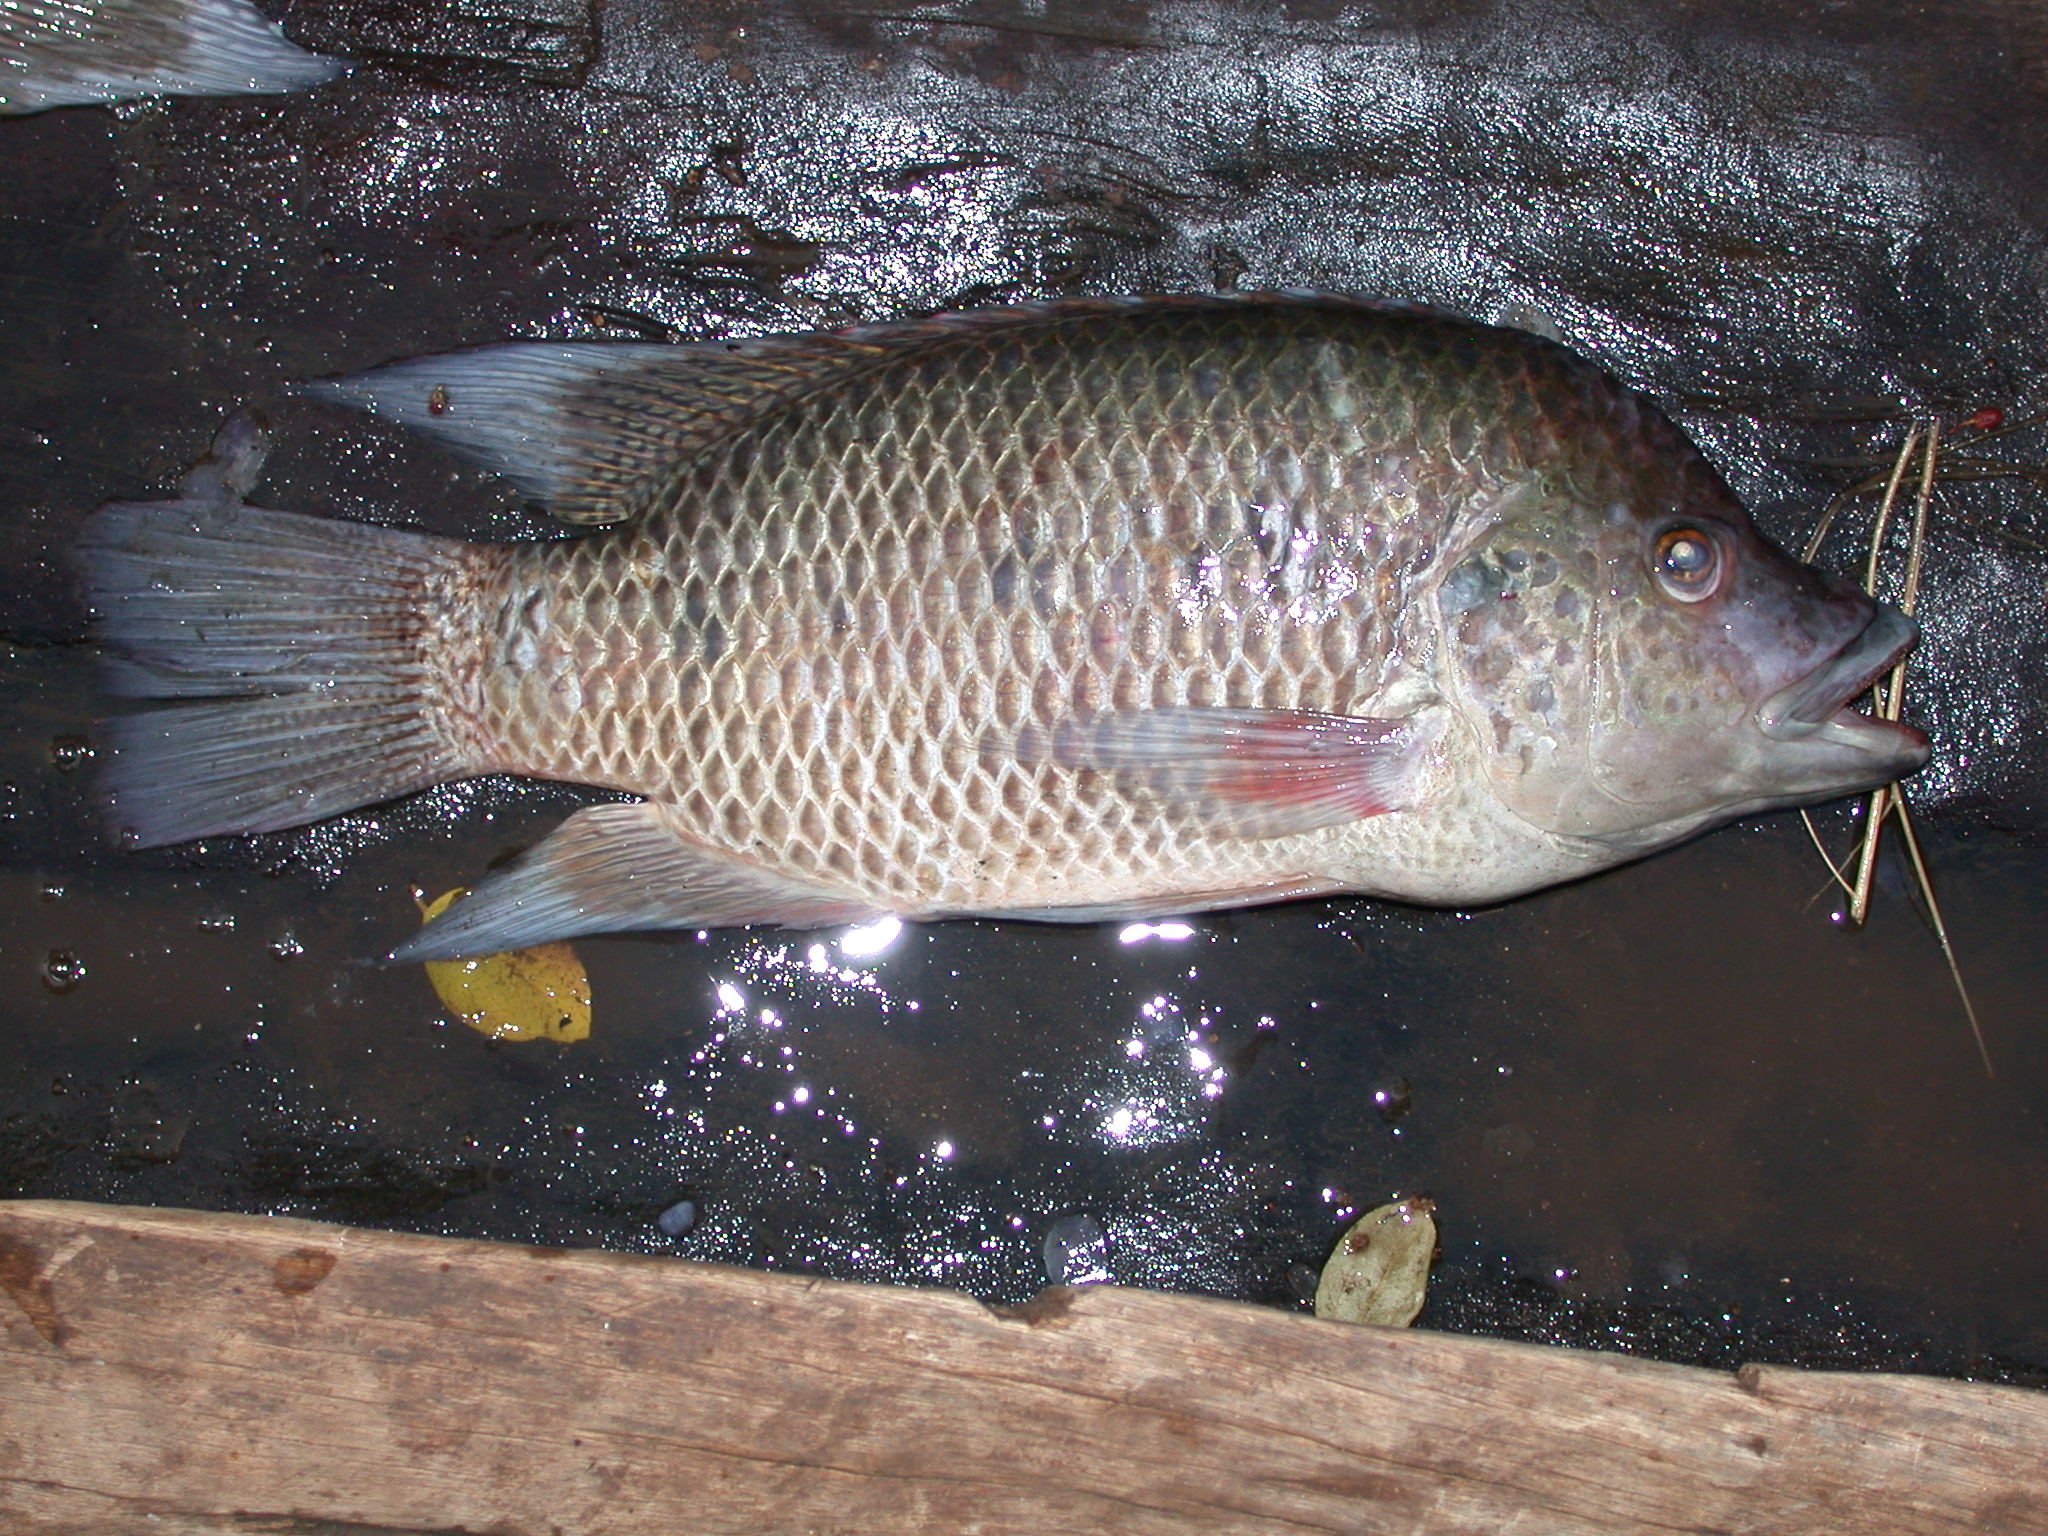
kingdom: Animalia
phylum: Chordata
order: Perciformes
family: Cichlidae
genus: Oreochromis
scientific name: Oreochromis mortimeri
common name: Kariba tilapia
